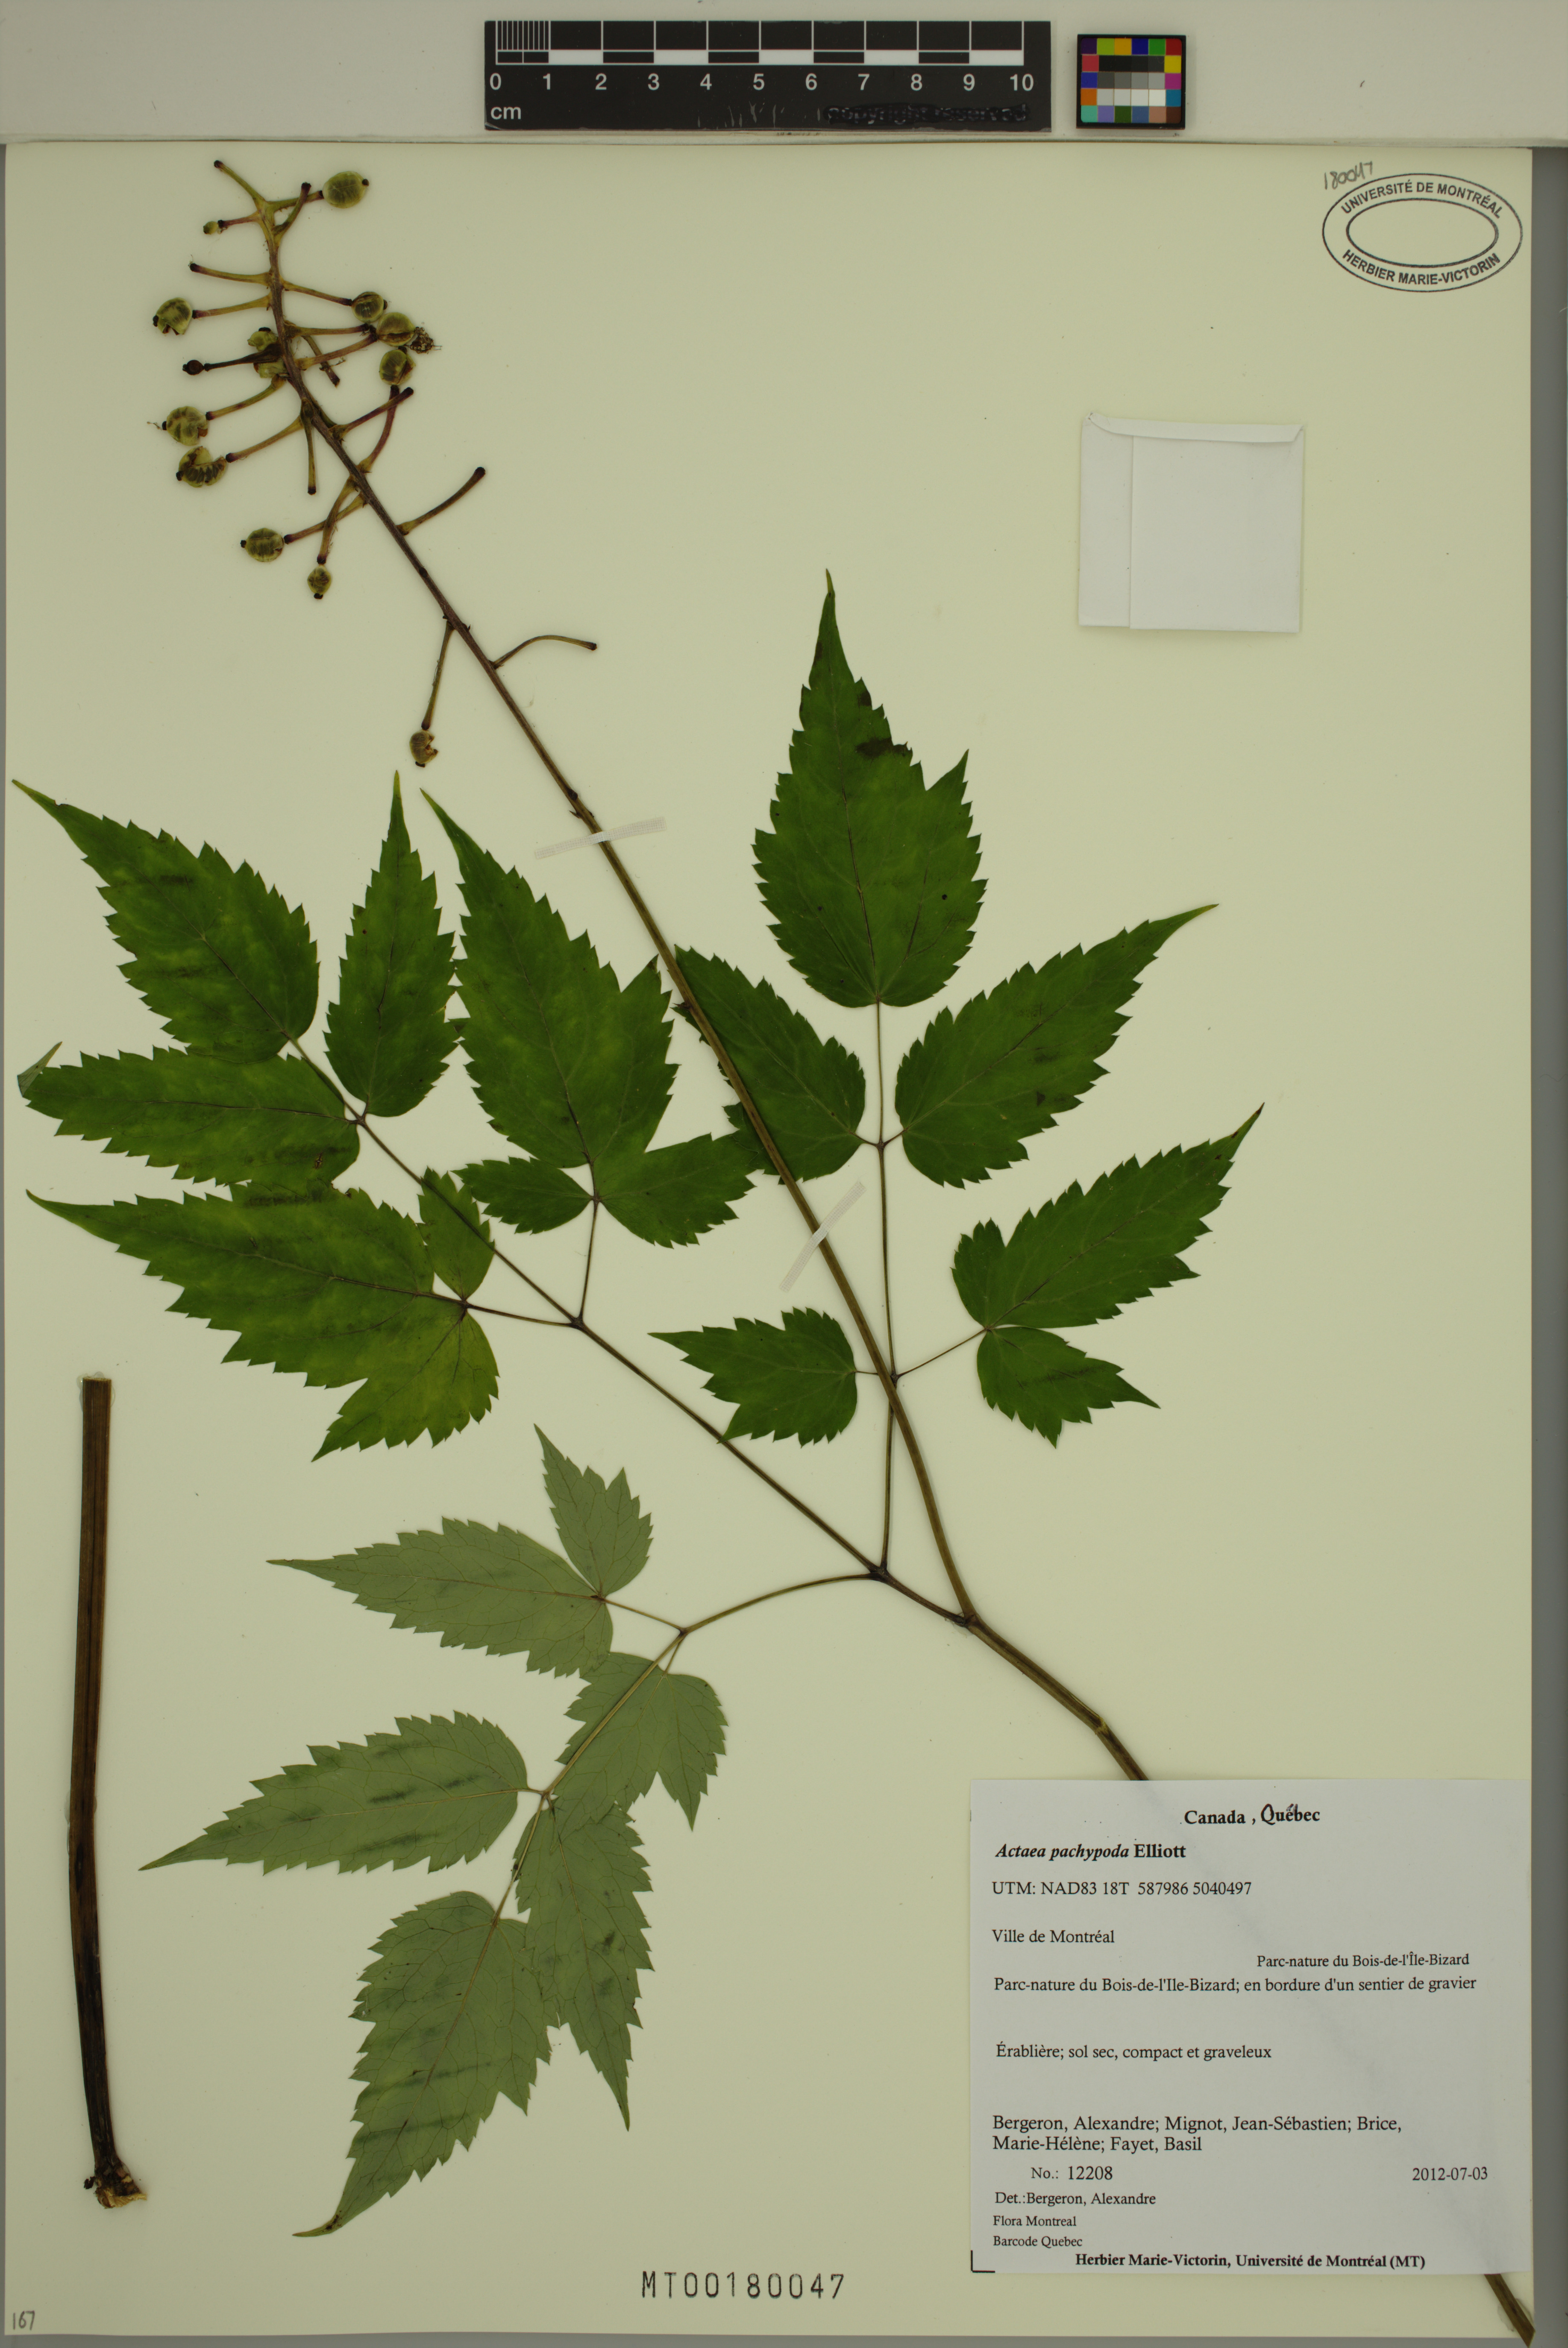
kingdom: Plantae
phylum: Tracheophyta
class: Magnoliopsida
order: Ranunculales
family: Ranunculaceae
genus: Actaea
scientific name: Actaea pachypoda
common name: Doll's-eyes
